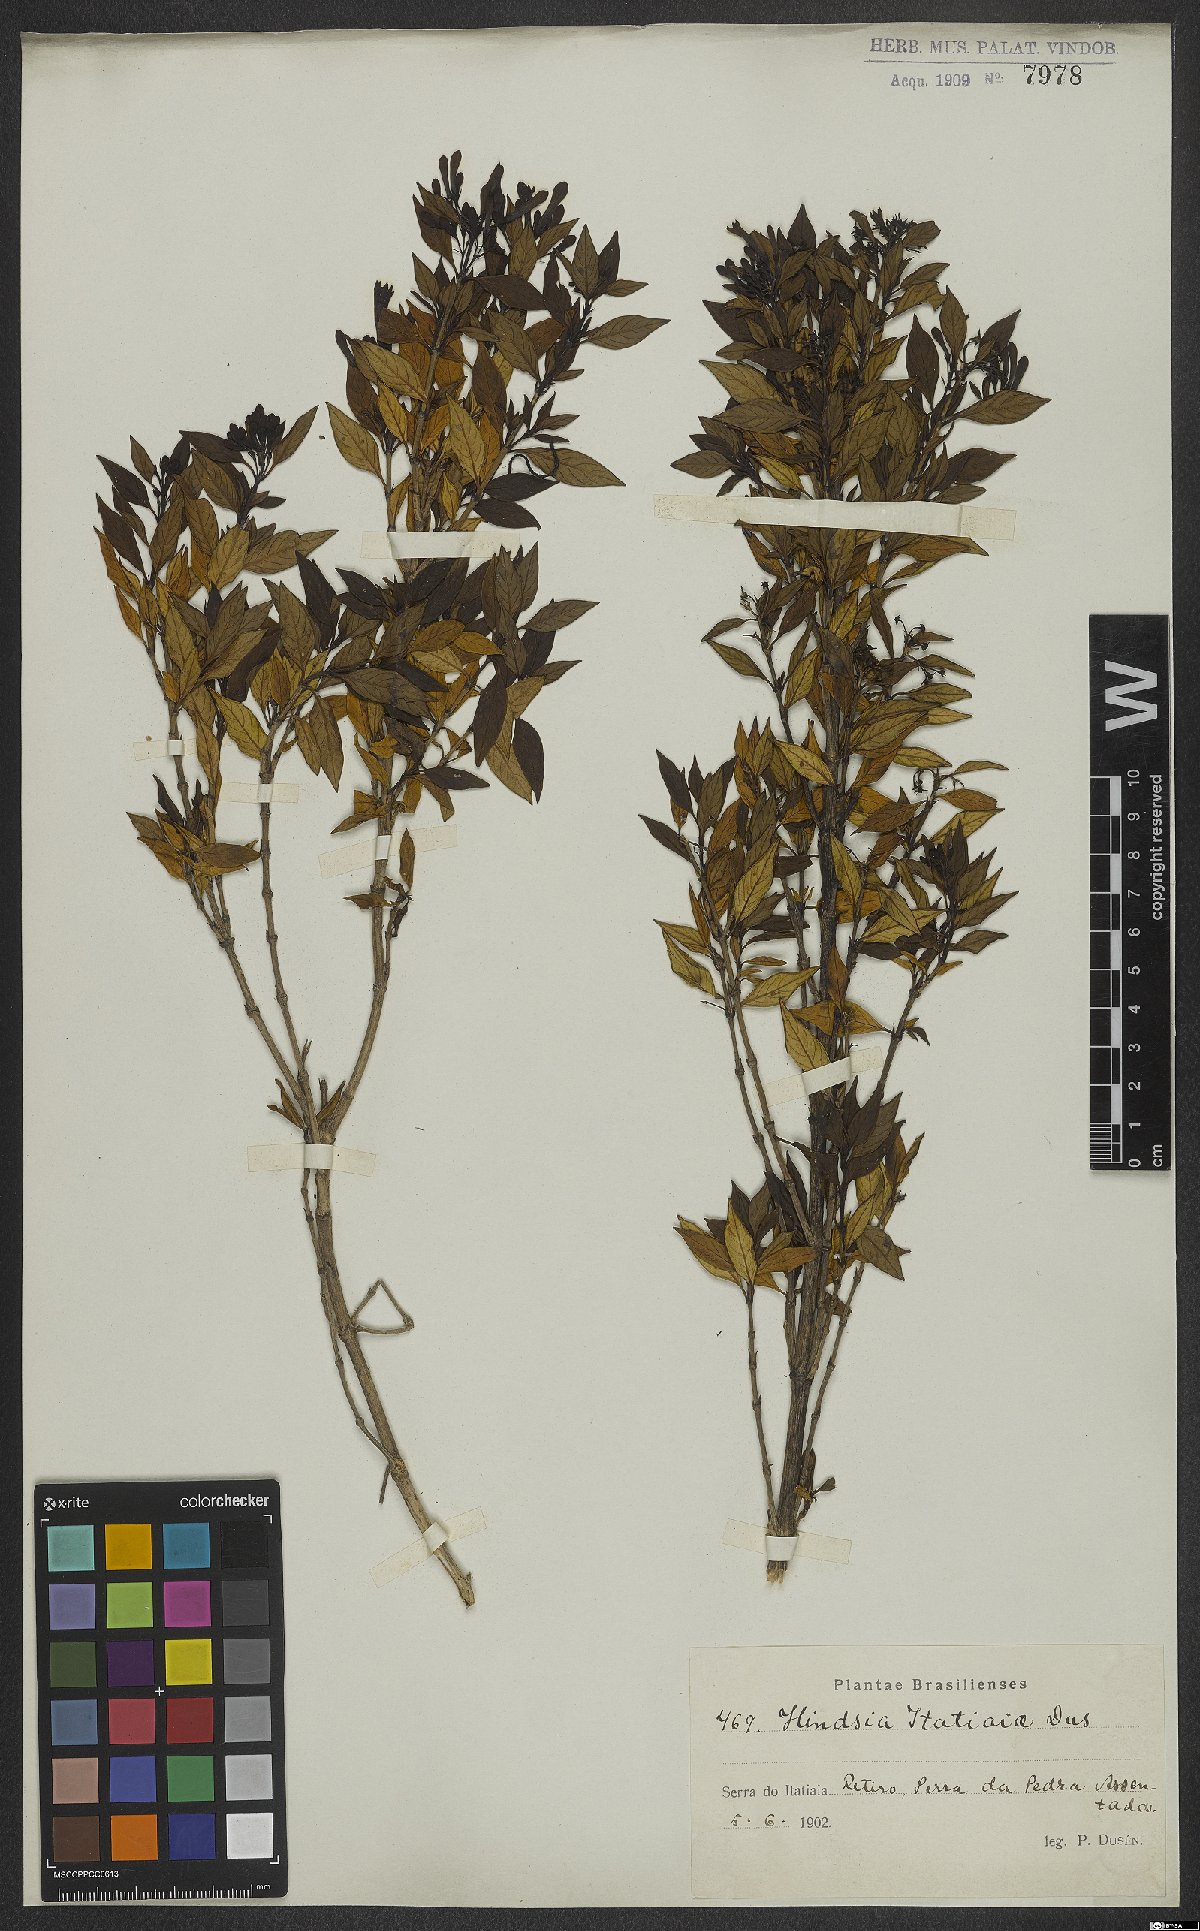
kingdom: Plantae
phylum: Tracheophyta
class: Magnoliopsida
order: Gentianales
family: Rubiaceae
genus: Hindsia
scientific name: Hindsia glabra
